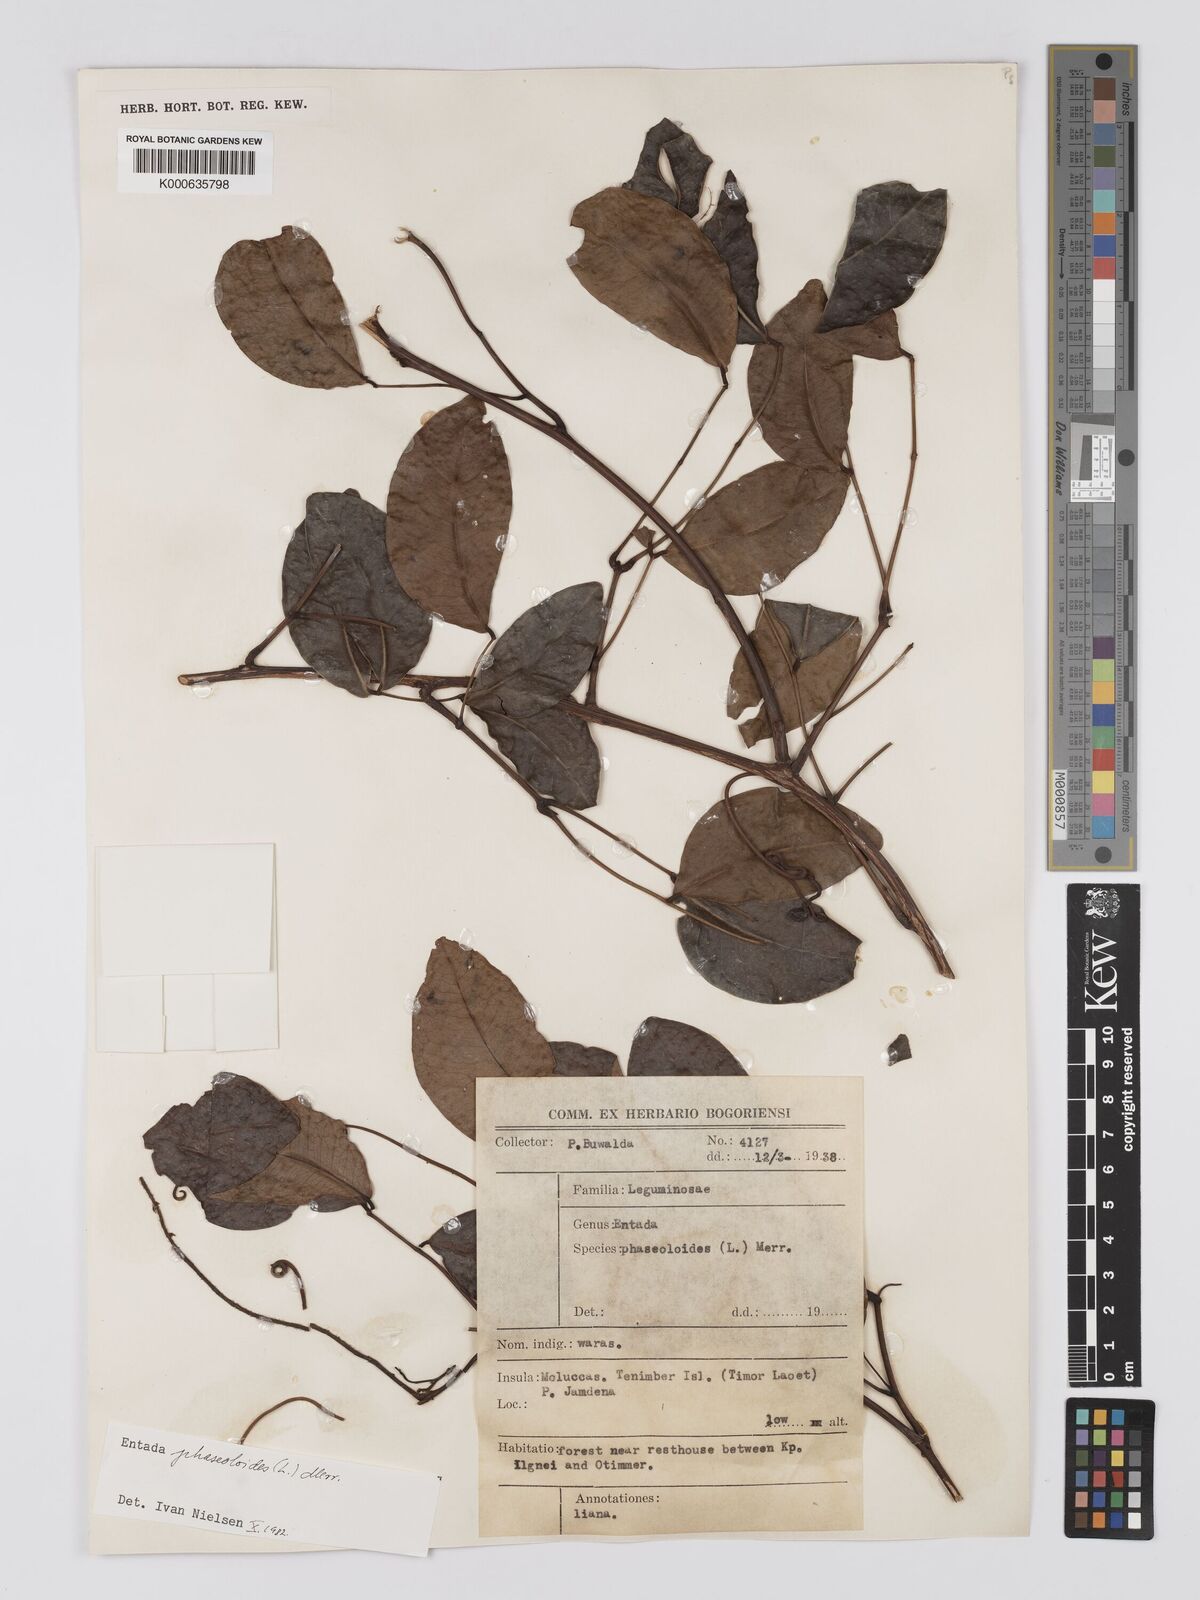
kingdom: Plantae
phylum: Tracheophyta
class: Magnoliopsida
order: Fabales
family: Fabaceae
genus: Entada
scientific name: Entada phaseoloides
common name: Matchbox-bean
